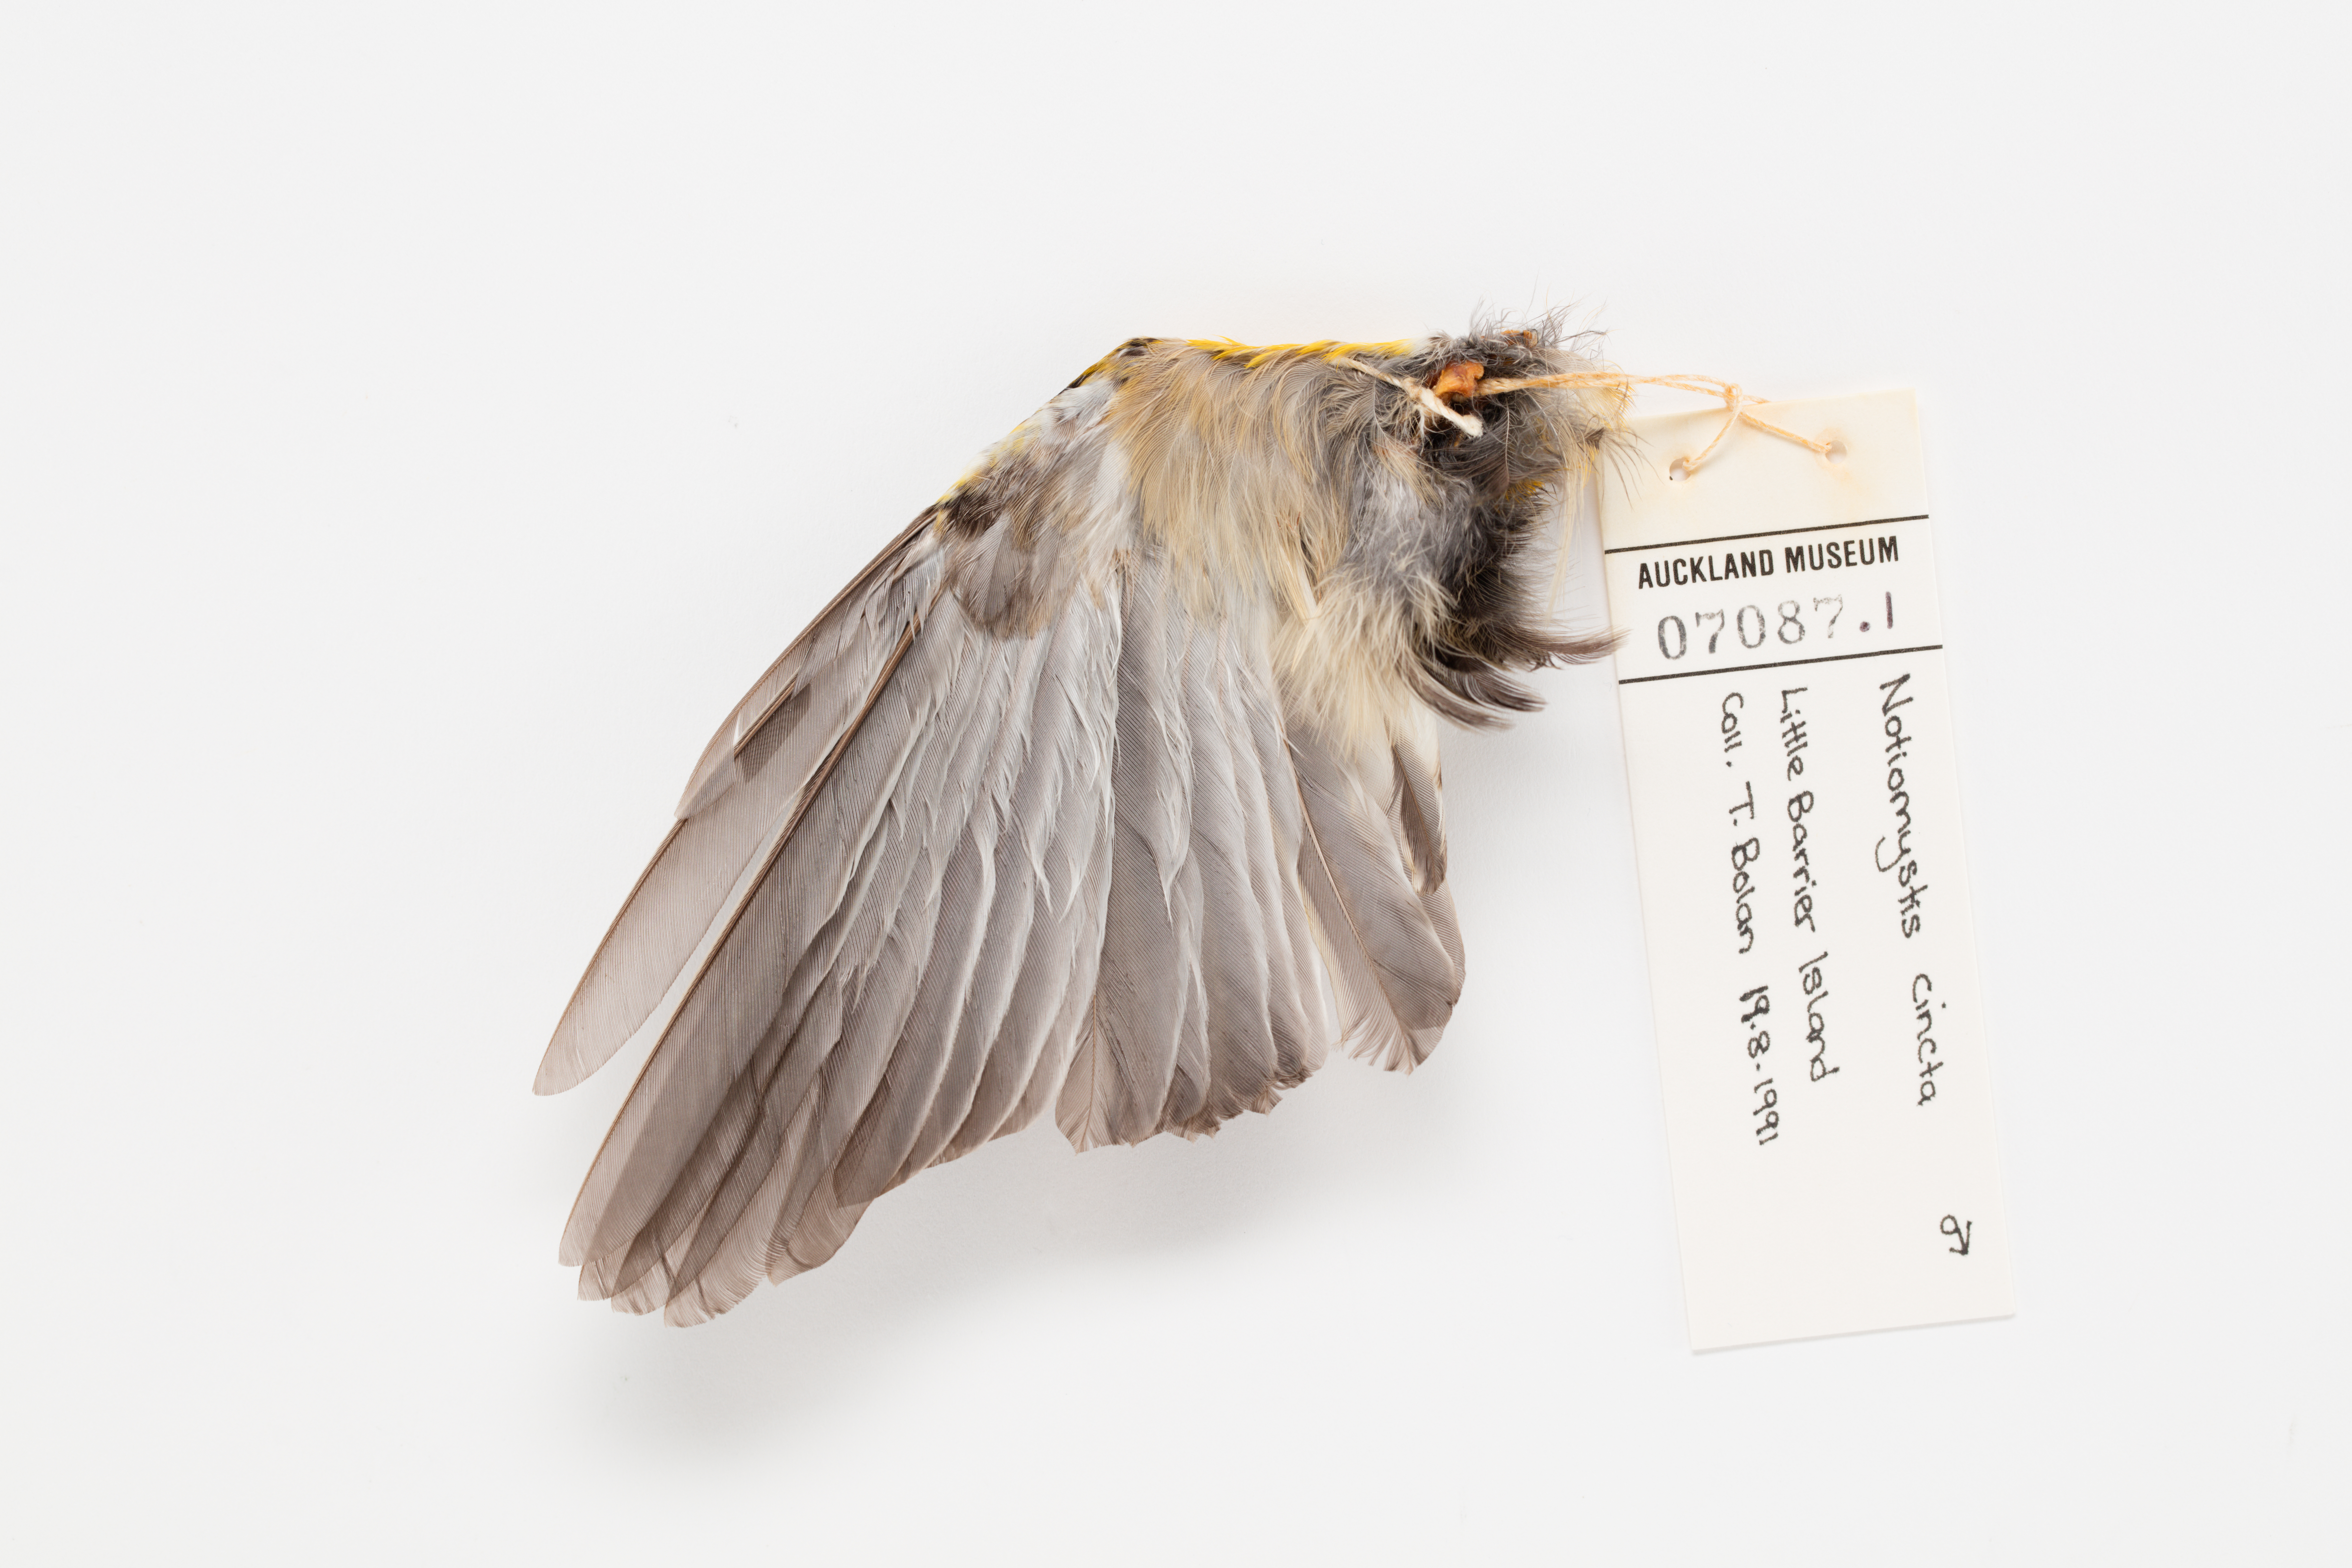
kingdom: Animalia
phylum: Chordata
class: Aves
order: Passeriformes
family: Notiomystidae
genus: Notiomystis
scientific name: Notiomystis cincta
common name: Stitchbird
